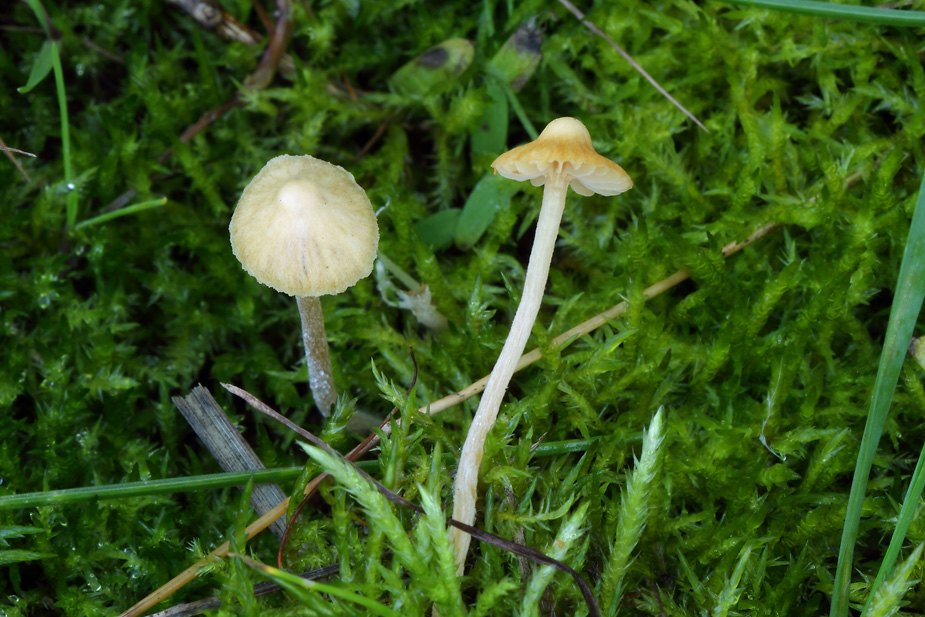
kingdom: Fungi
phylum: Basidiomycota
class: Agaricomycetes
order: Agaricales
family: Hymenogastraceae
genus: Galerina
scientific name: Galerina clavata
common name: kær-hjelmhat
